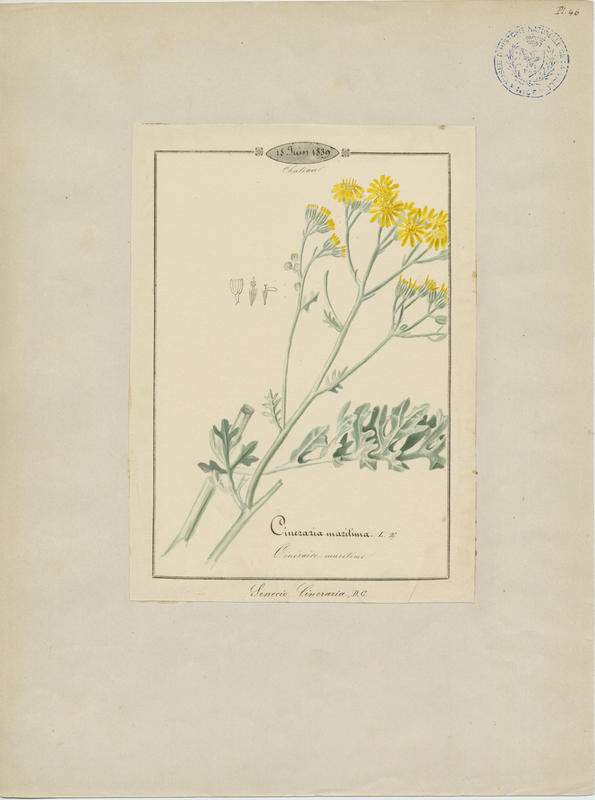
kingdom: Plantae
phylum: Tracheophyta
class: Magnoliopsida
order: Asterales
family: Asteraceae
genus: Jacobaea
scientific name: Jacobaea maritima
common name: Silver ragwort
